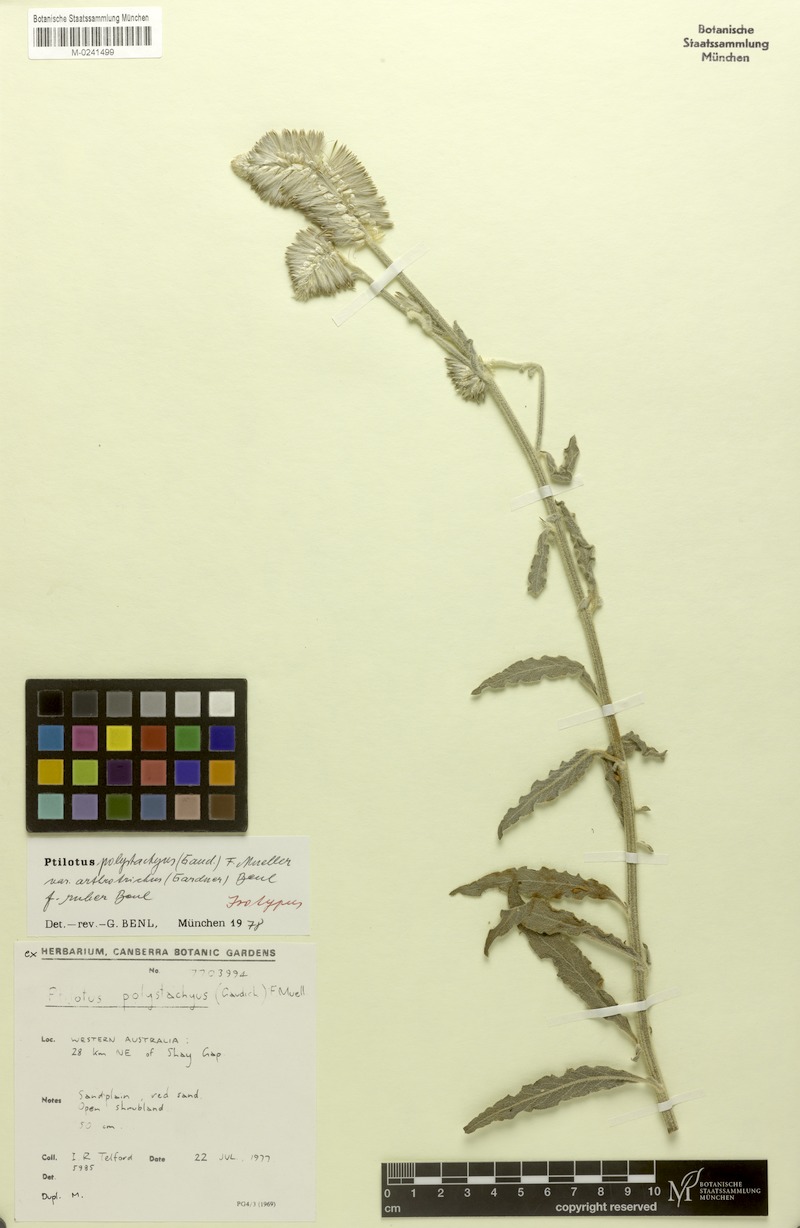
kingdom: Plantae
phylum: Tracheophyta
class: Magnoliopsida
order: Caryophyllales
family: Amaranthaceae
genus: Ptilotus
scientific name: Ptilotus polystachyus
